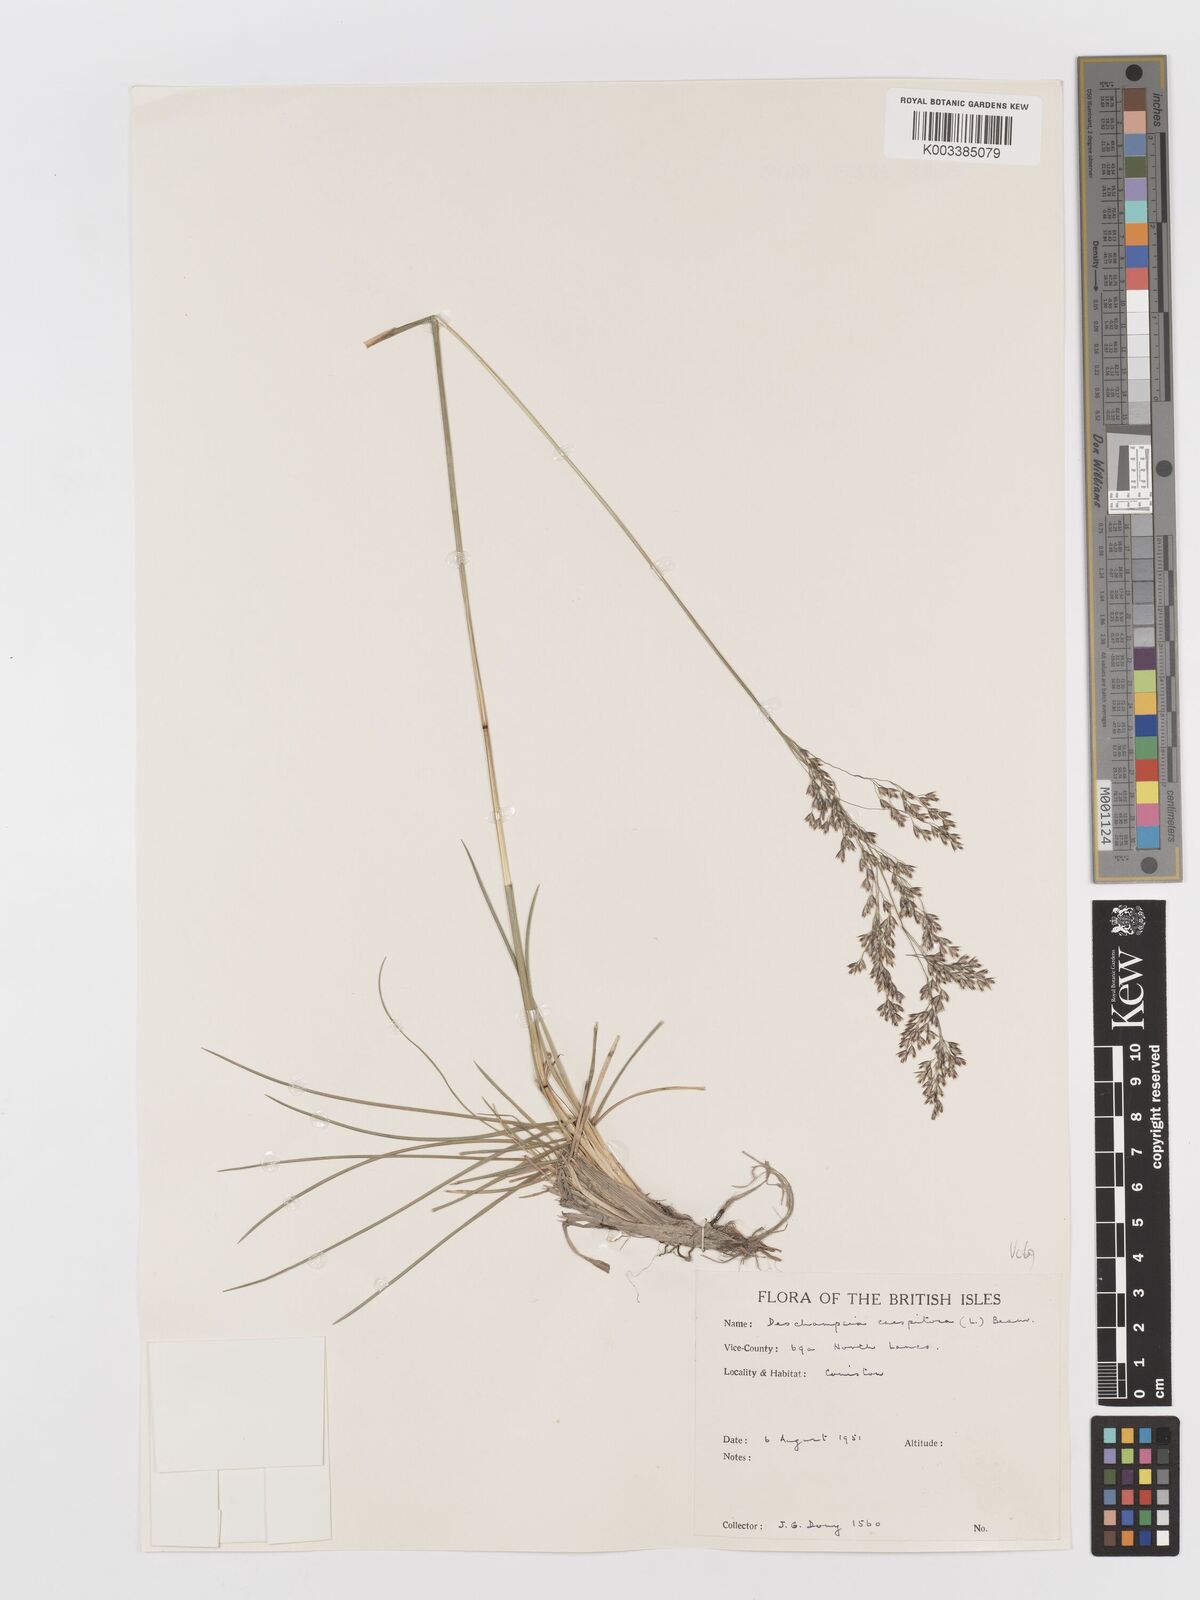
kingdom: Plantae
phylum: Tracheophyta
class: Liliopsida
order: Poales
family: Poaceae
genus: Deschampsia
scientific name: Deschampsia cespitosa
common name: Tufted hair-grass
